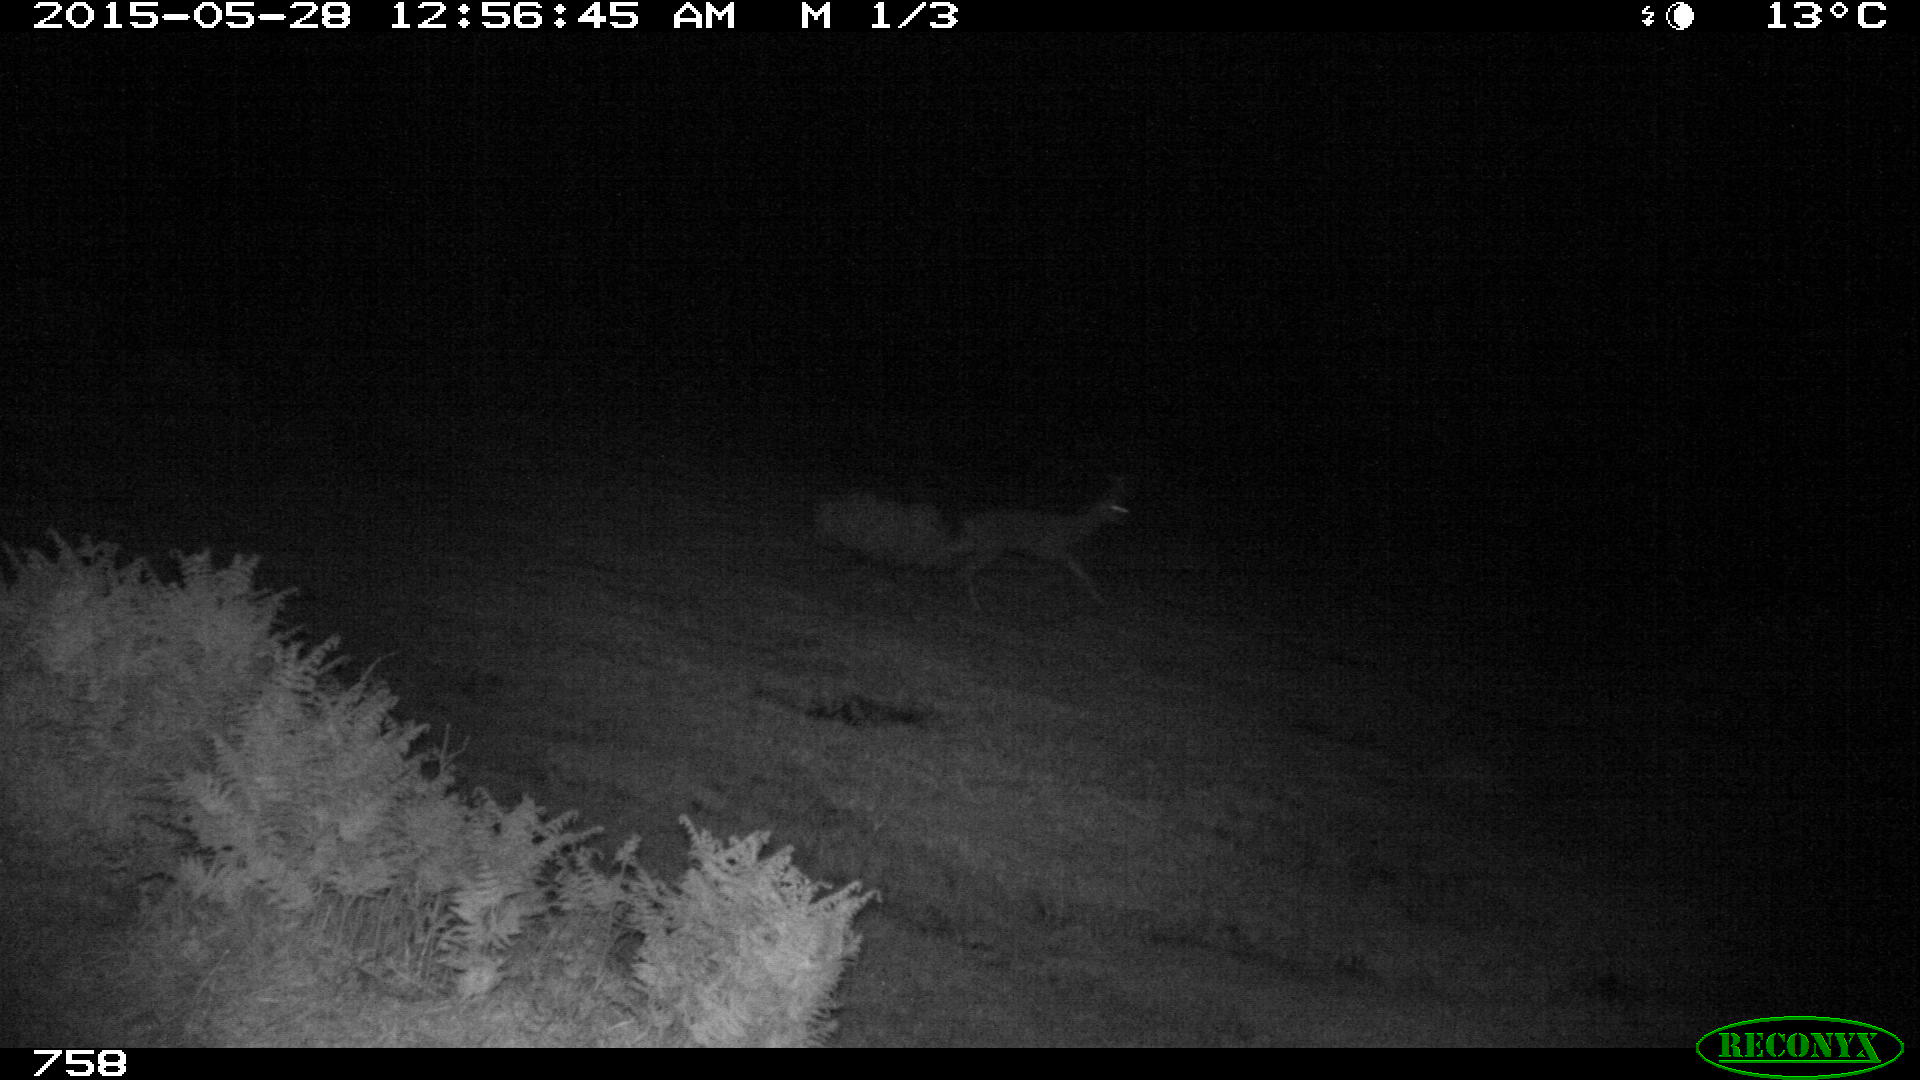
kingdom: Animalia
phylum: Chordata
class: Mammalia
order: Artiodactyla
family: Cervidae
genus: Capreolus
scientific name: Capreolus capreolus
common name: Western roe deer
